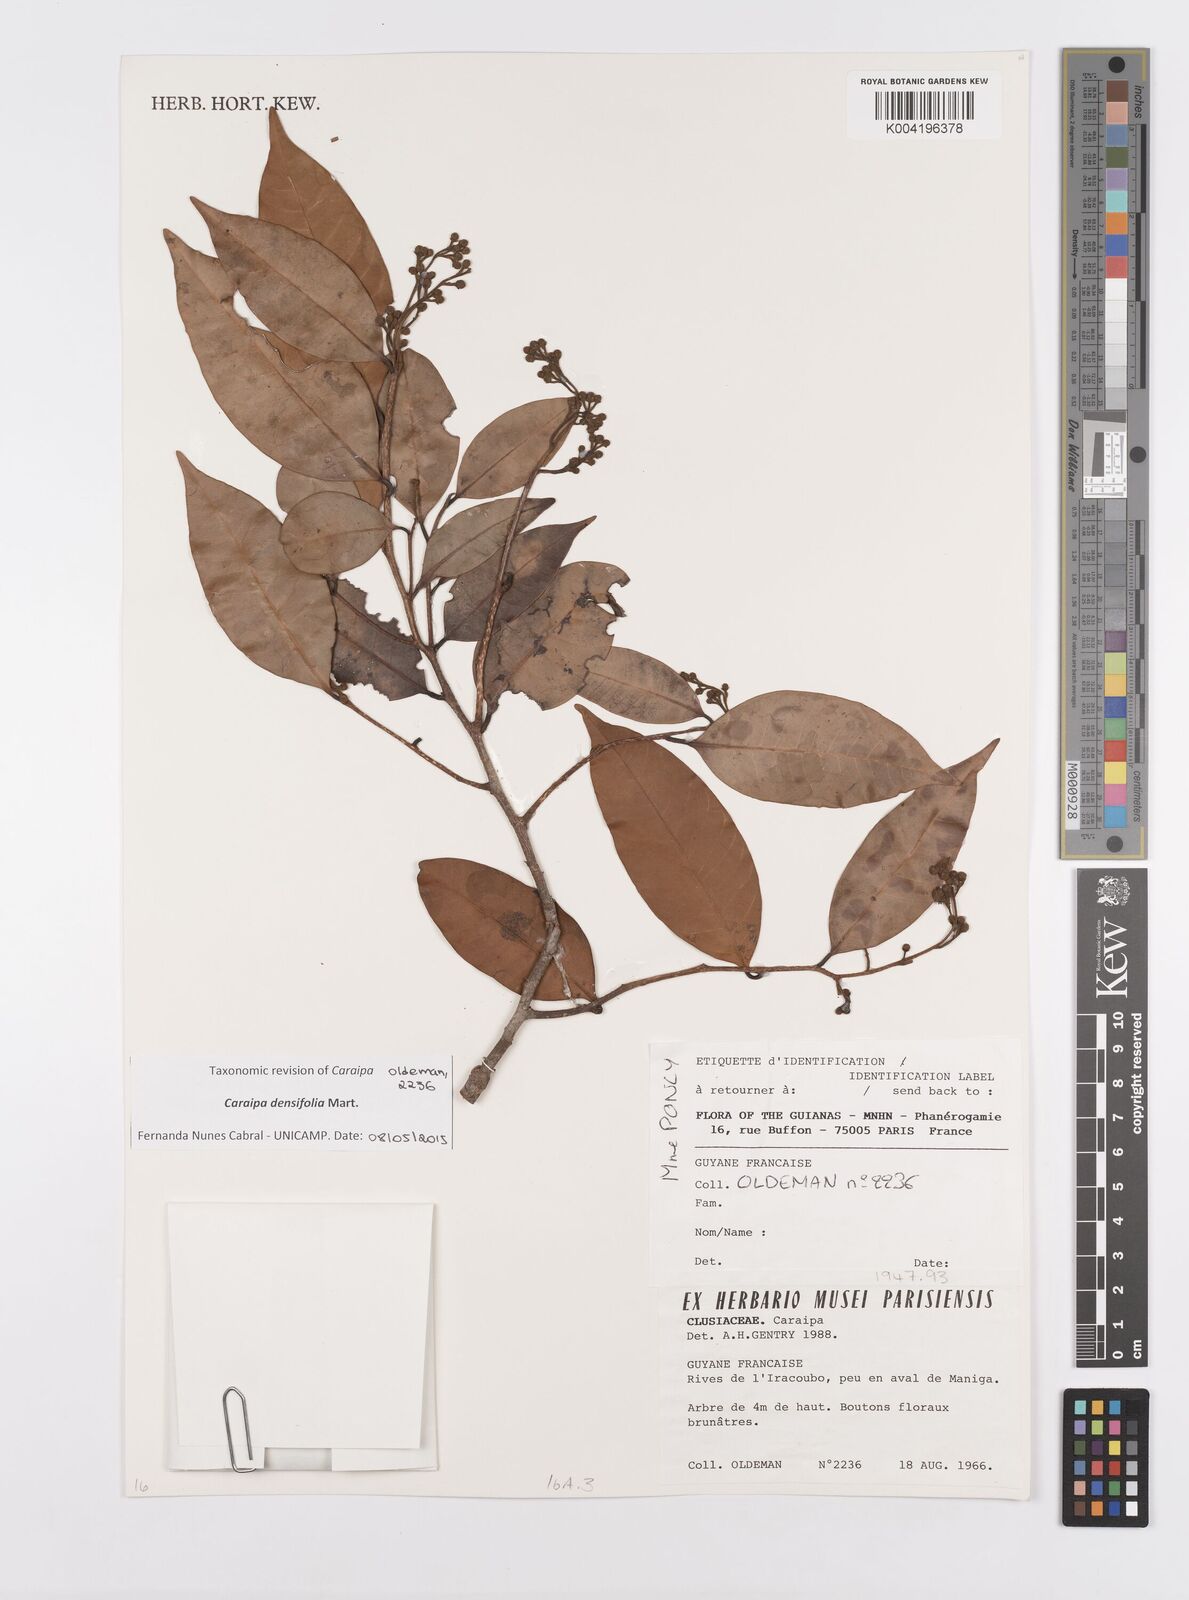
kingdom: Plantae
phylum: Tracheophyta
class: Magnoliopsida
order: Malpighiales
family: Calophyllaceae
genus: Caraipa
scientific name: Caraipa densifolia
